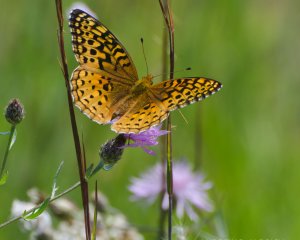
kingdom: Animalia
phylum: Arthropoda
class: Insecta
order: Lepidoptera
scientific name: Lepidoptera
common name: Butterflies
